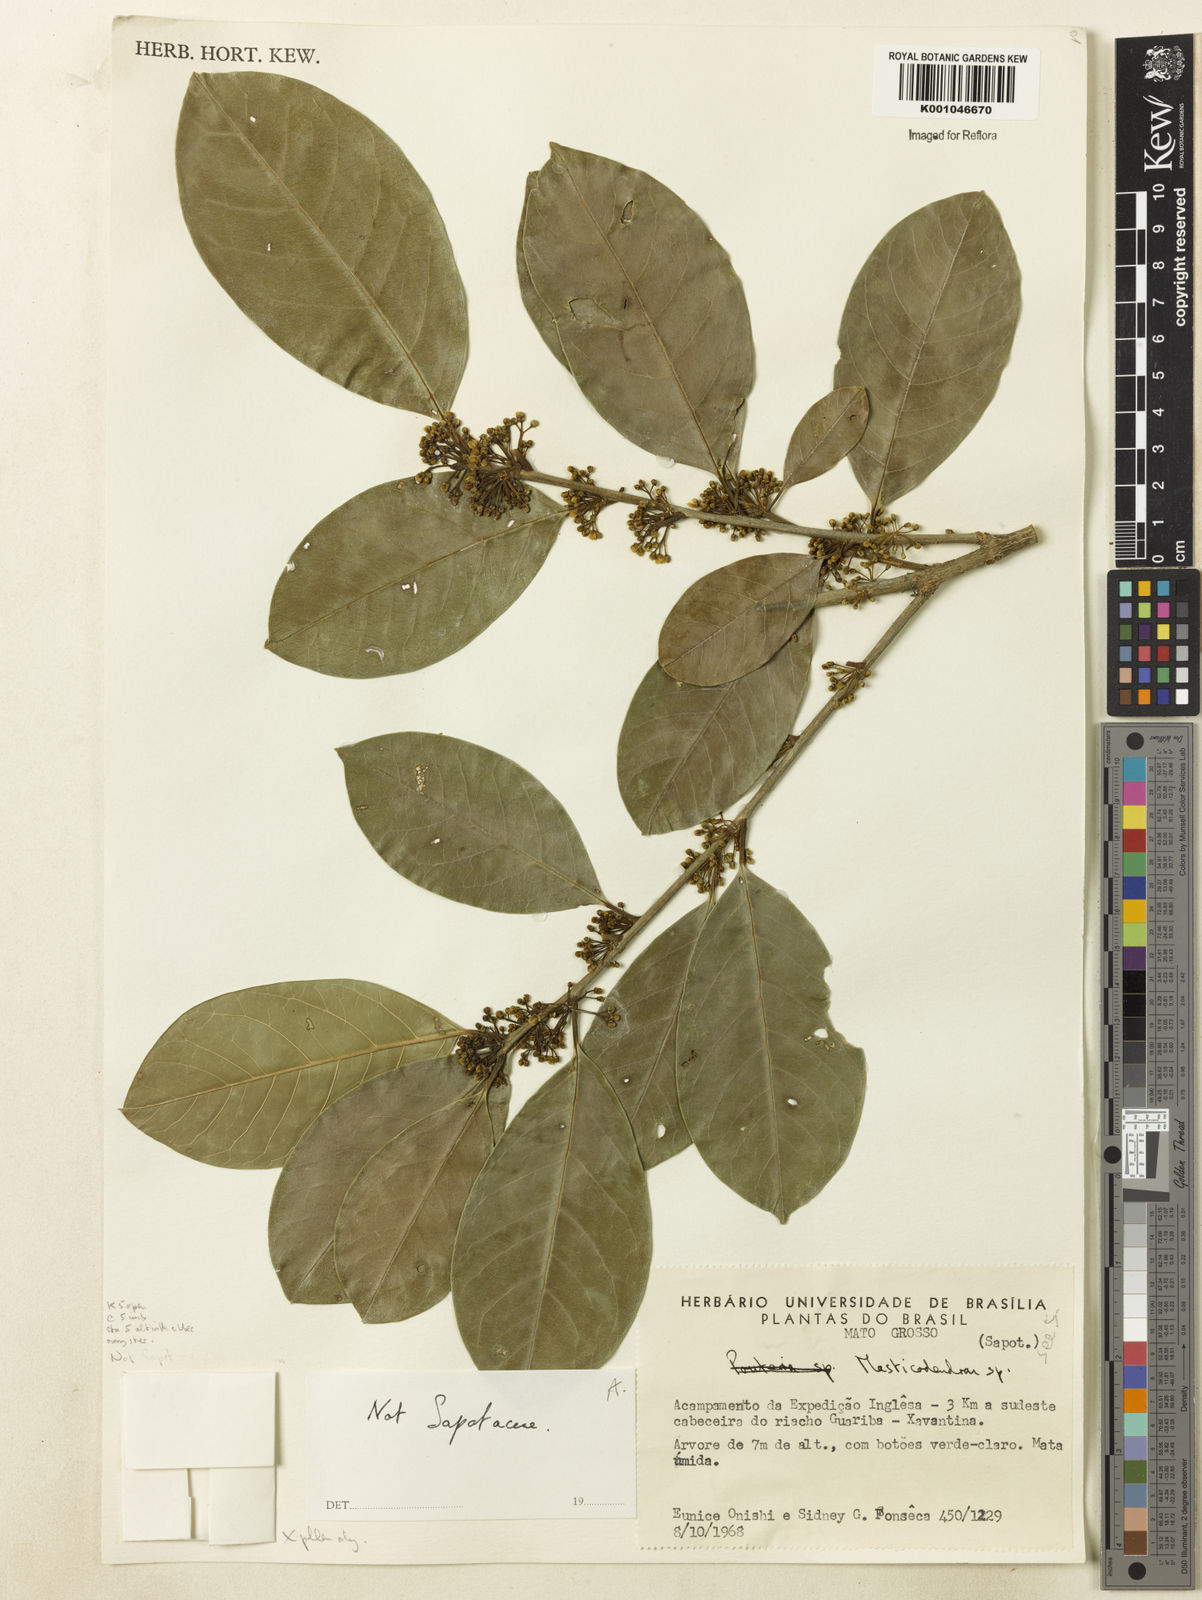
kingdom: Plantae
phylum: Tracheophyta
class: Magnoliopsida
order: Aquifoliales
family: Aquifoliaceae
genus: Ilex
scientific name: Ilex lundii
